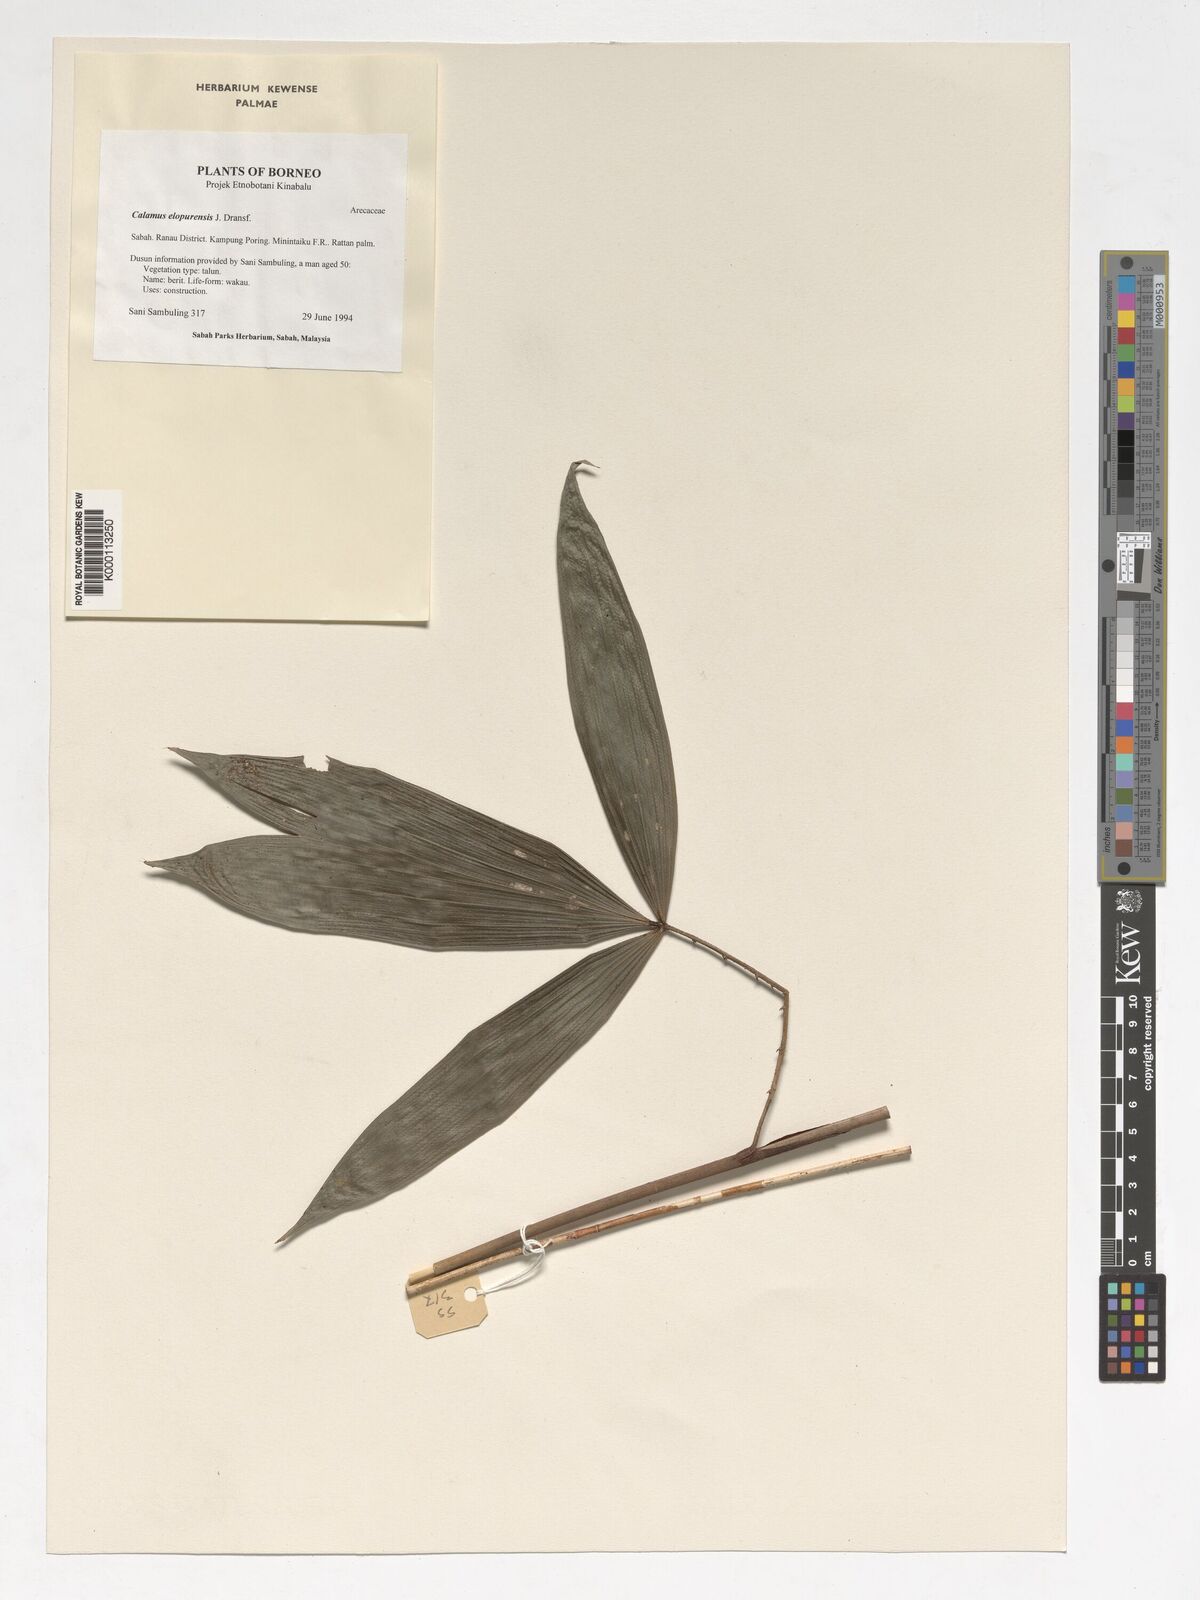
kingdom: Plantae
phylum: Tracheophyta
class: Liliopsida
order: Arecales
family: Arecaceae
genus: Calamus
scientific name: Calamus javensis
